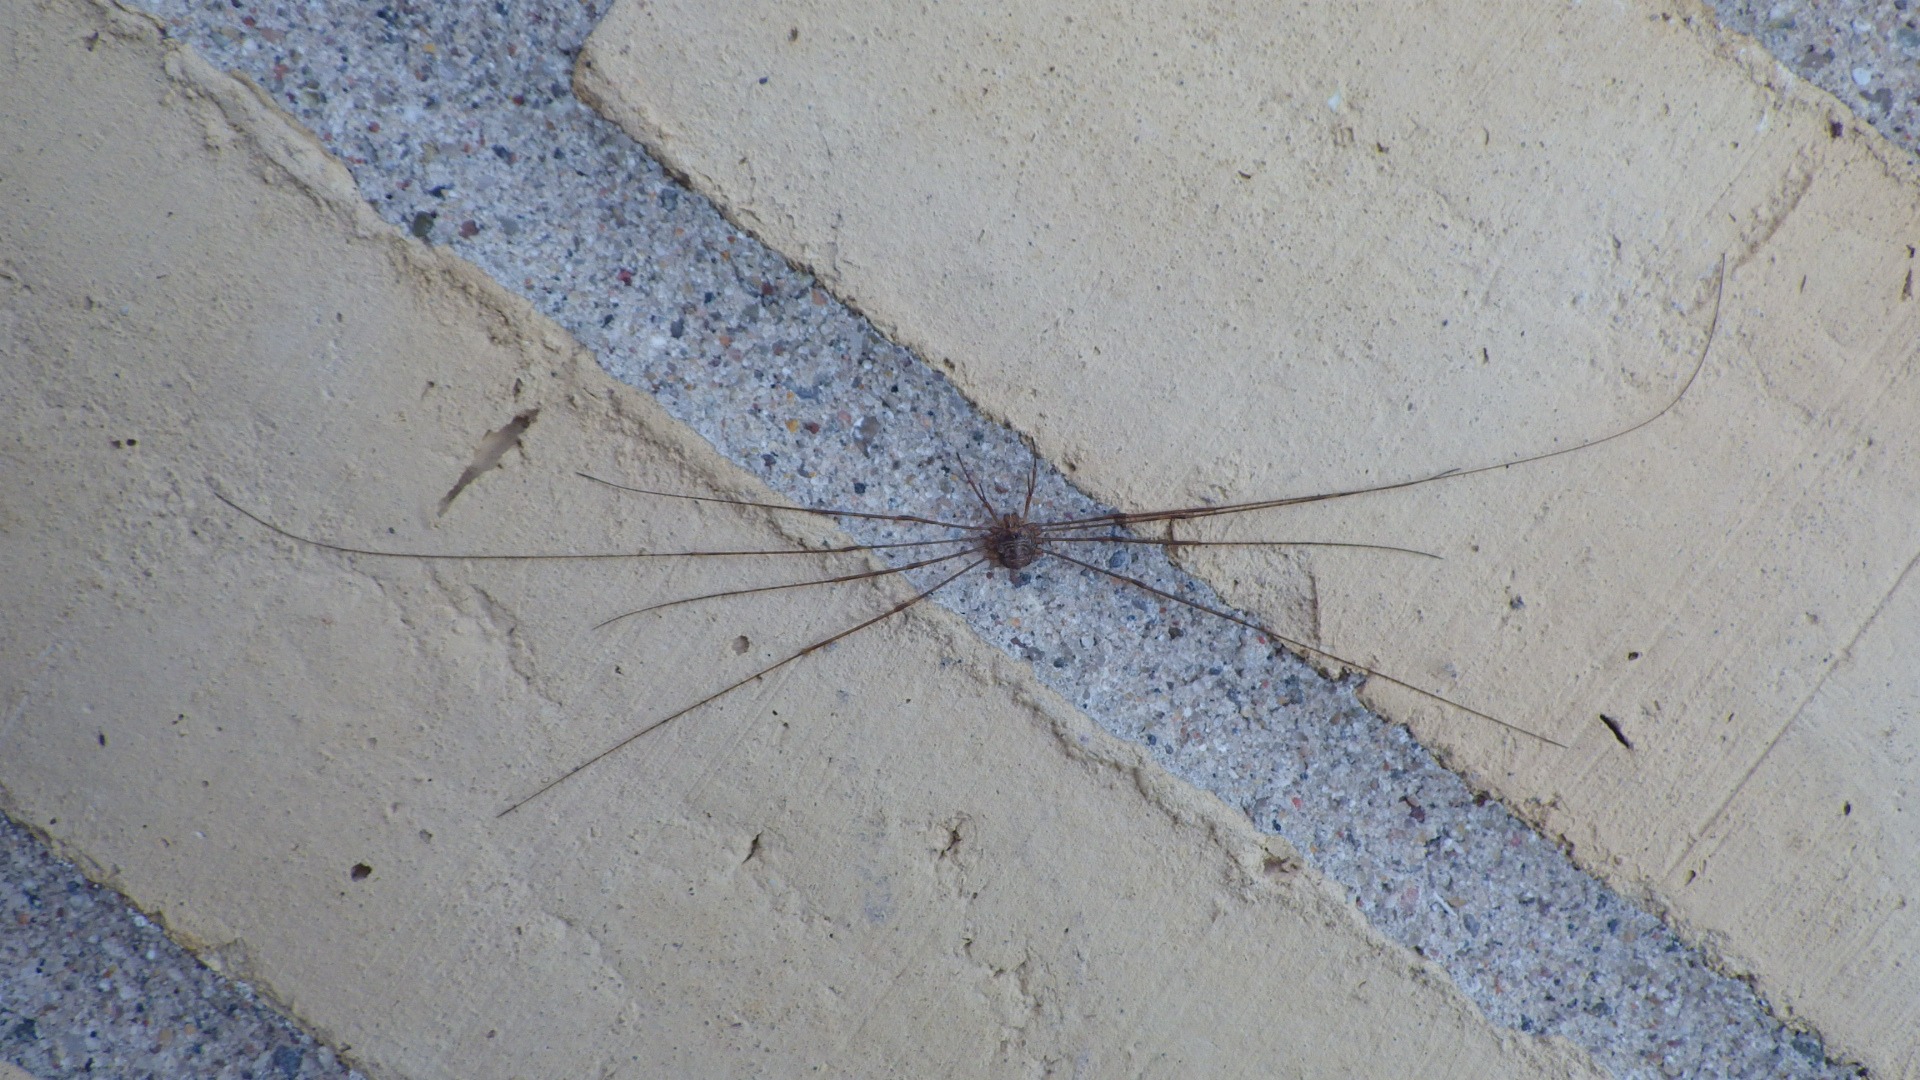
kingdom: Animalia
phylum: Arthropoda
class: Arachnida
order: Opiliones
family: Phalangiidae
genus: Dicranopalpus
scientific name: Dicranopalpus ramosus
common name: Gaffelmejer
